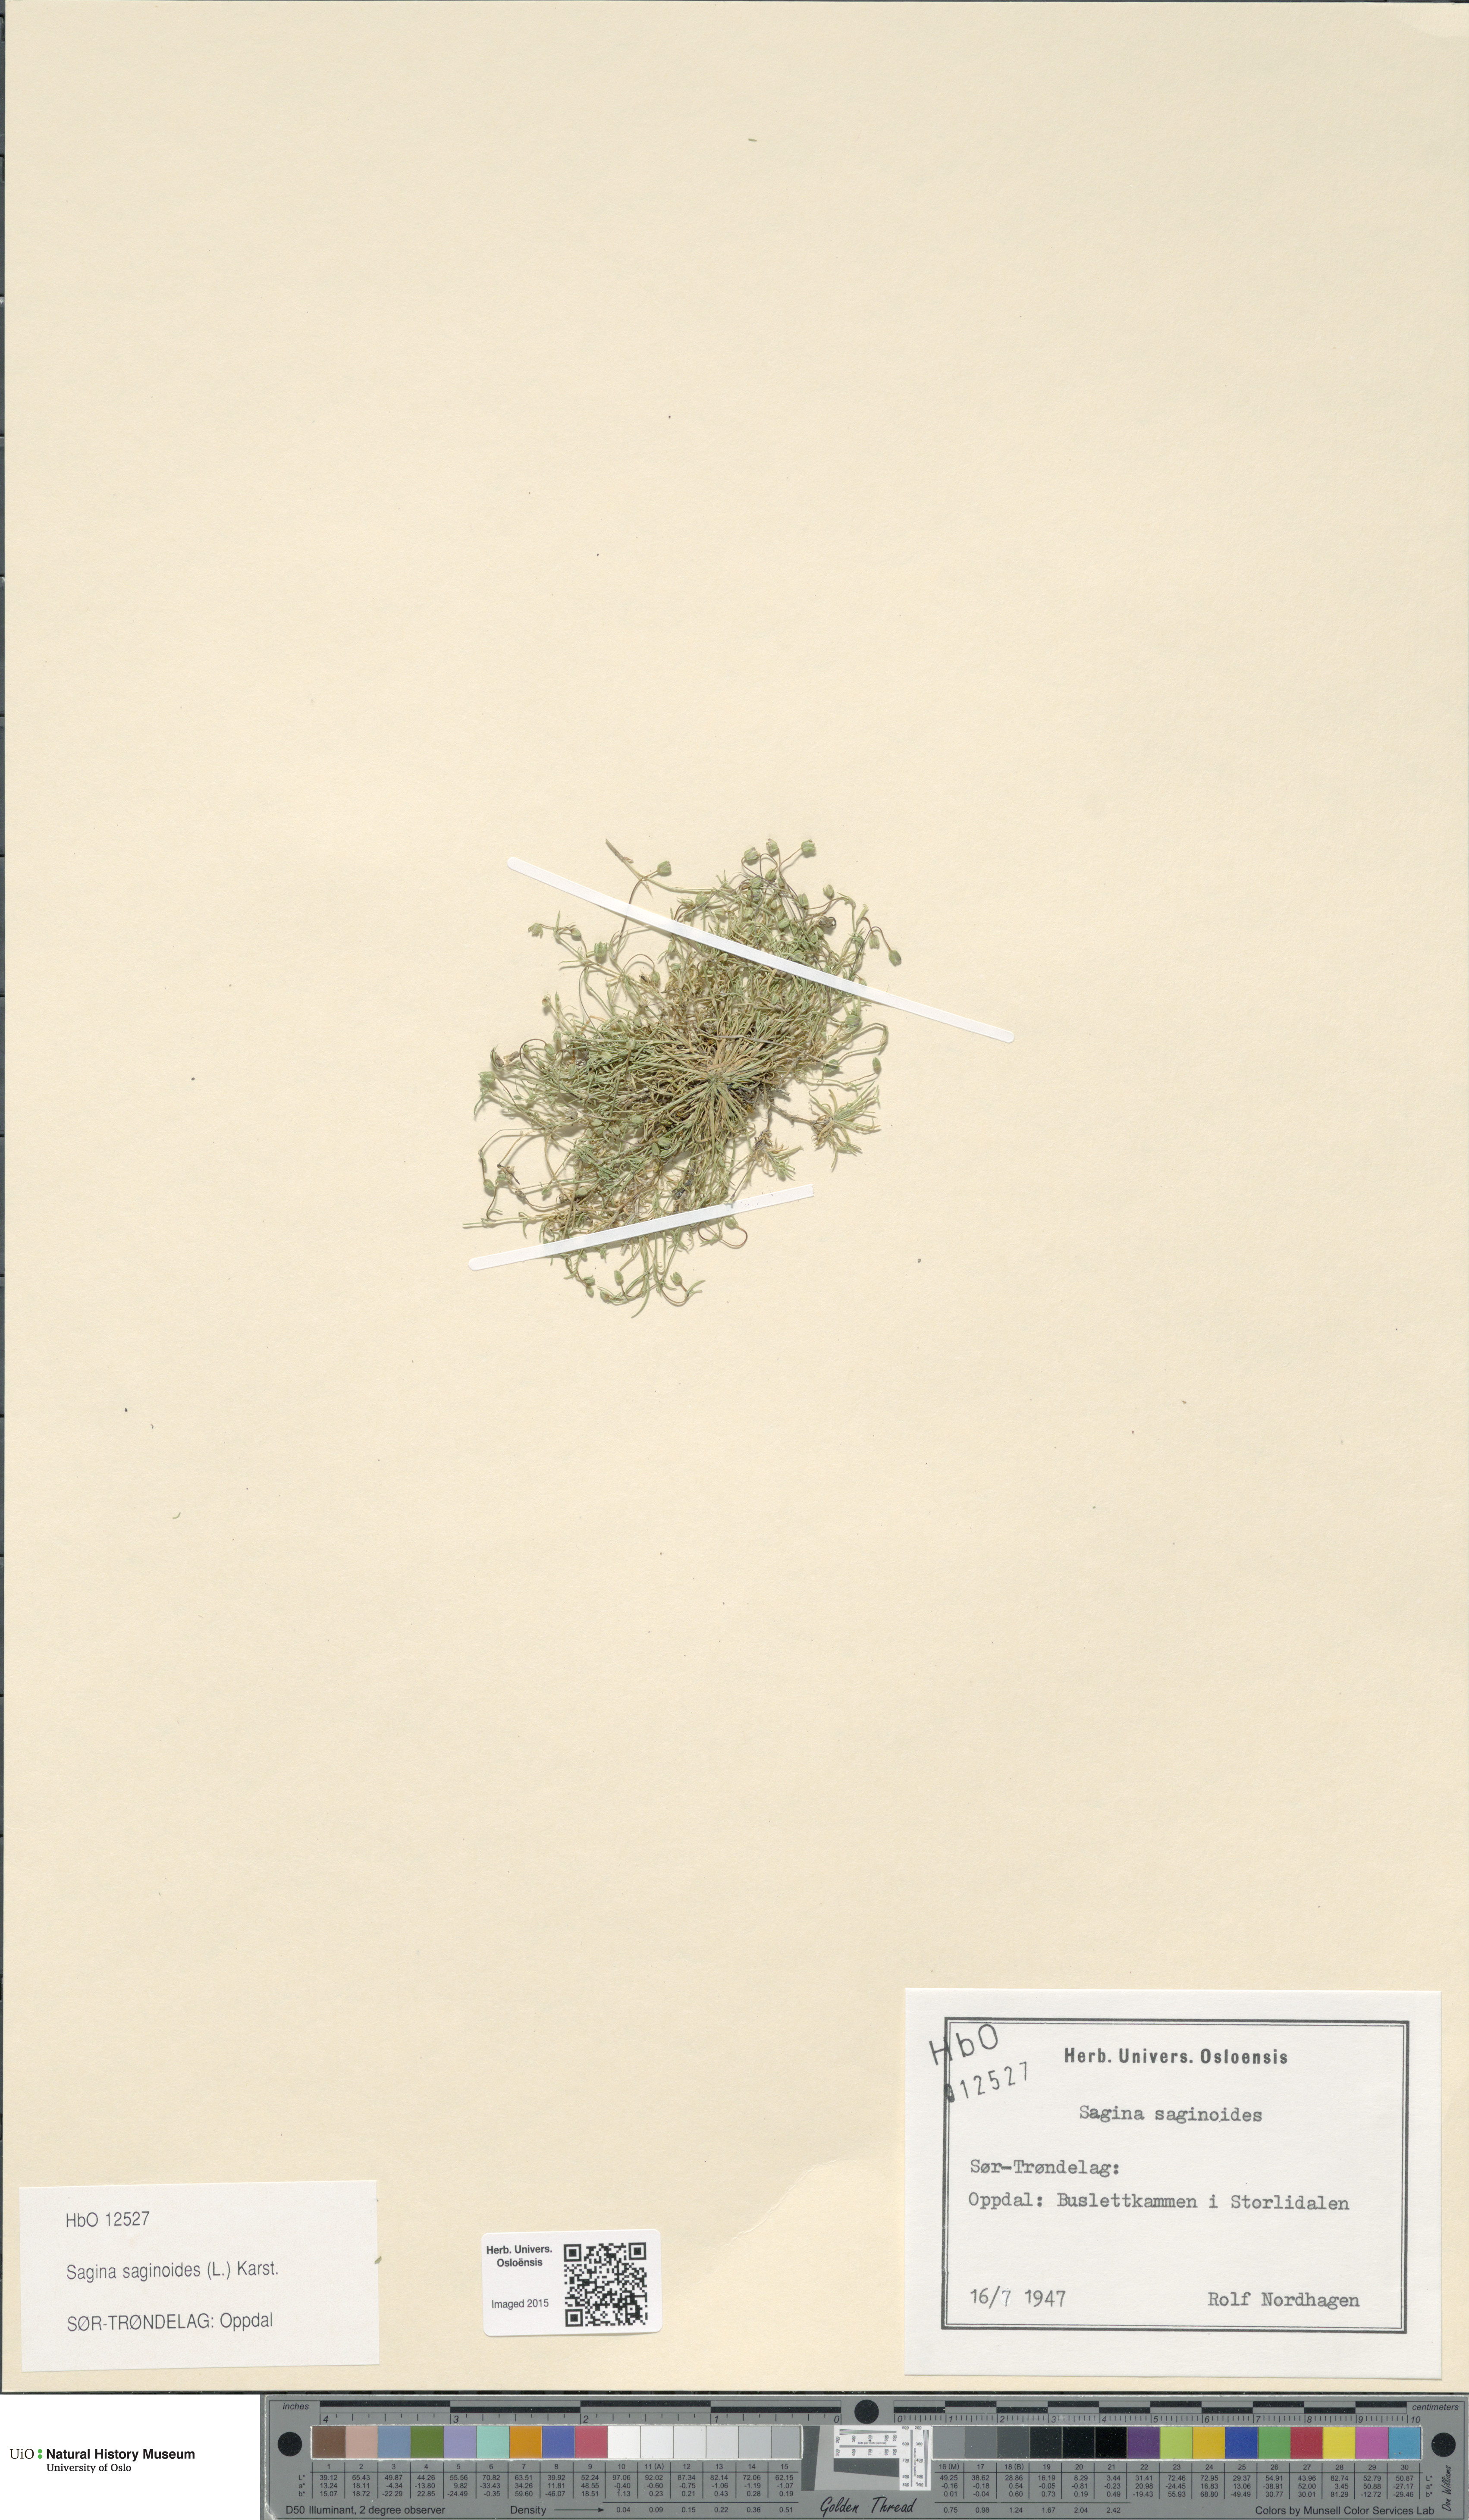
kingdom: Plantae
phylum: Tracheophyta
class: Magnoliopsida
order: Caryophyllales
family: Caryophyllaceae
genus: Sagina
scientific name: Sagina saginoides
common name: Alpine pearlwort
